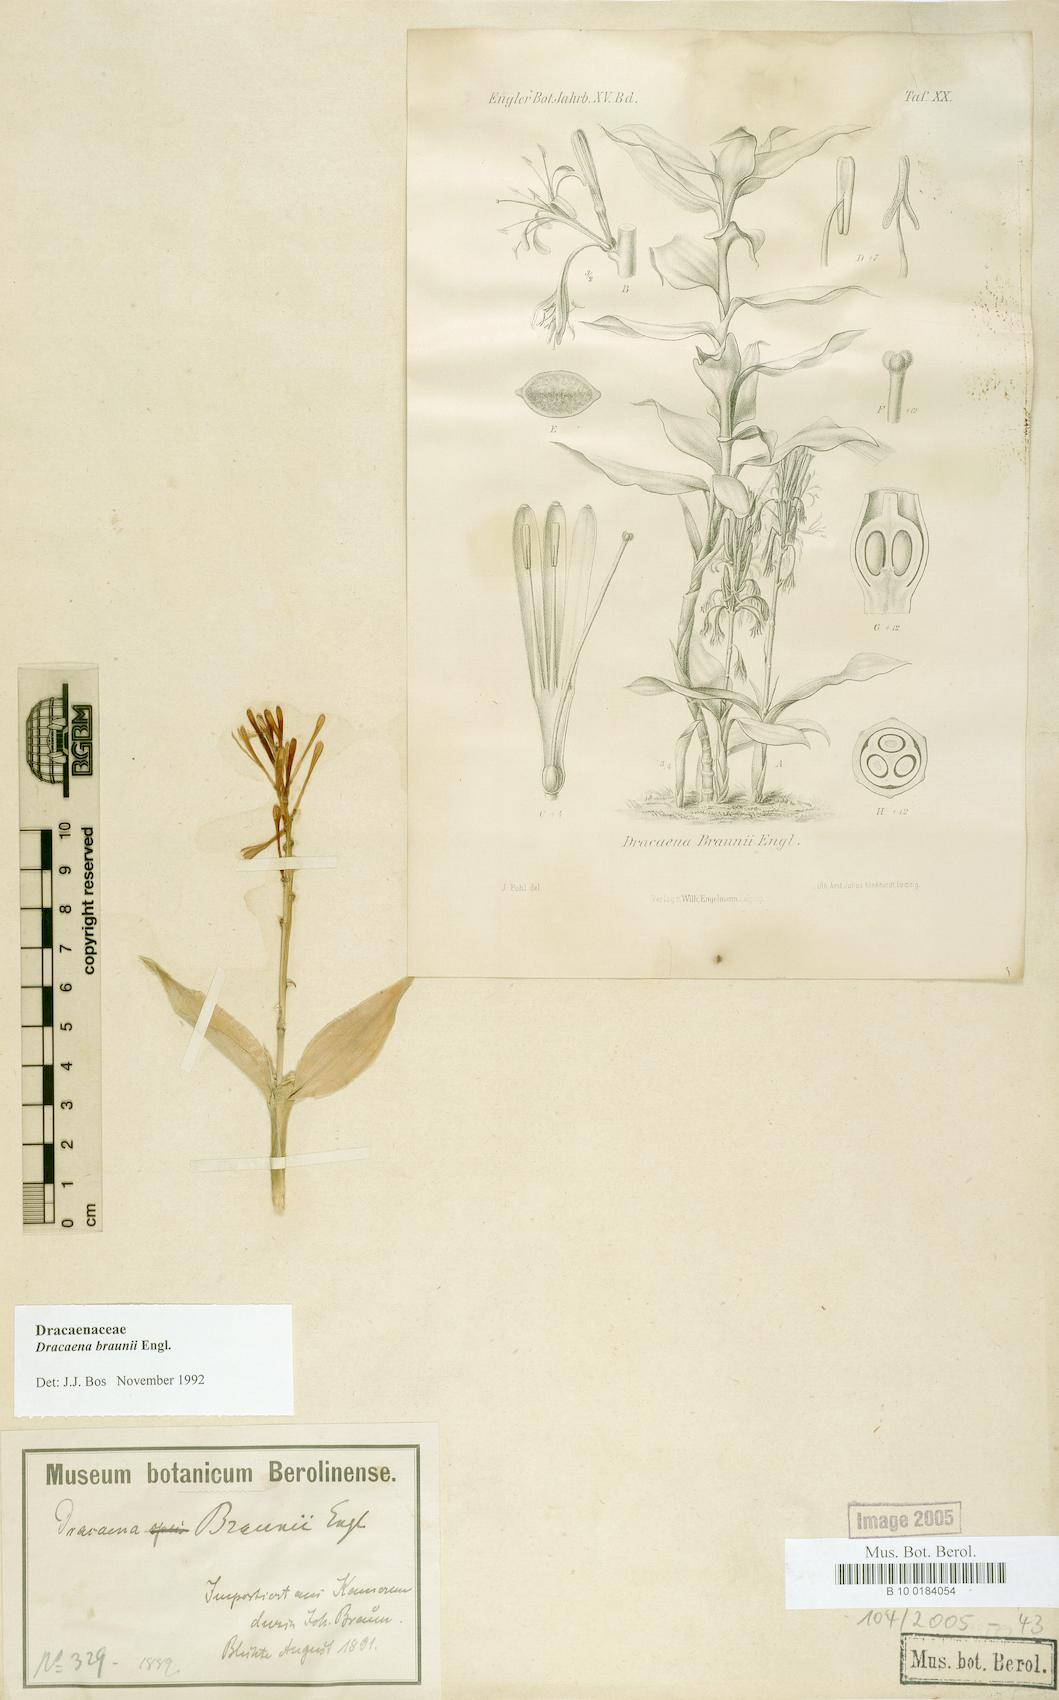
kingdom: Plantae
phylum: Tracheophyta
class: Liliopsida
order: Asparagales
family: Asparagaceae
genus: Dracaena
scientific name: Dracaena braunii
